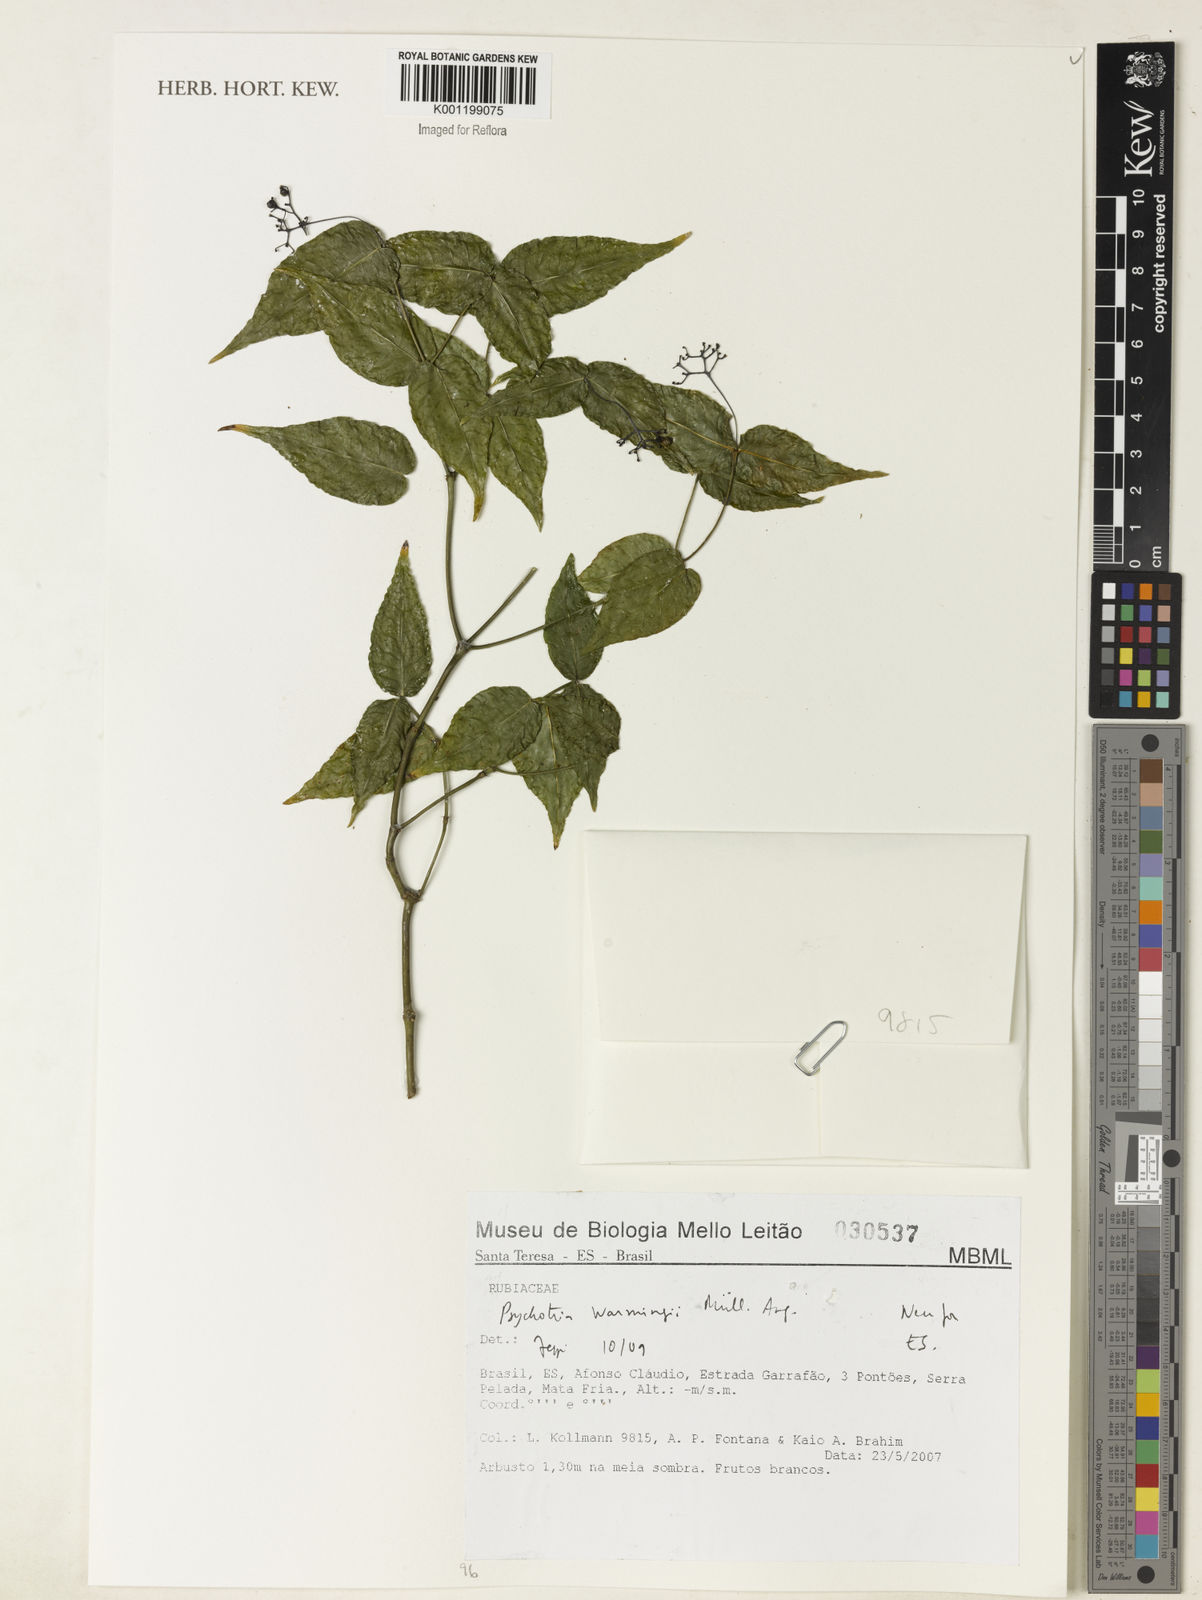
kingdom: Plantae
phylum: Tracheophyta
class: Magnoliopsida
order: Gentianales
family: Rubiaceae
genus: Psychotria
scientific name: Psychotria
